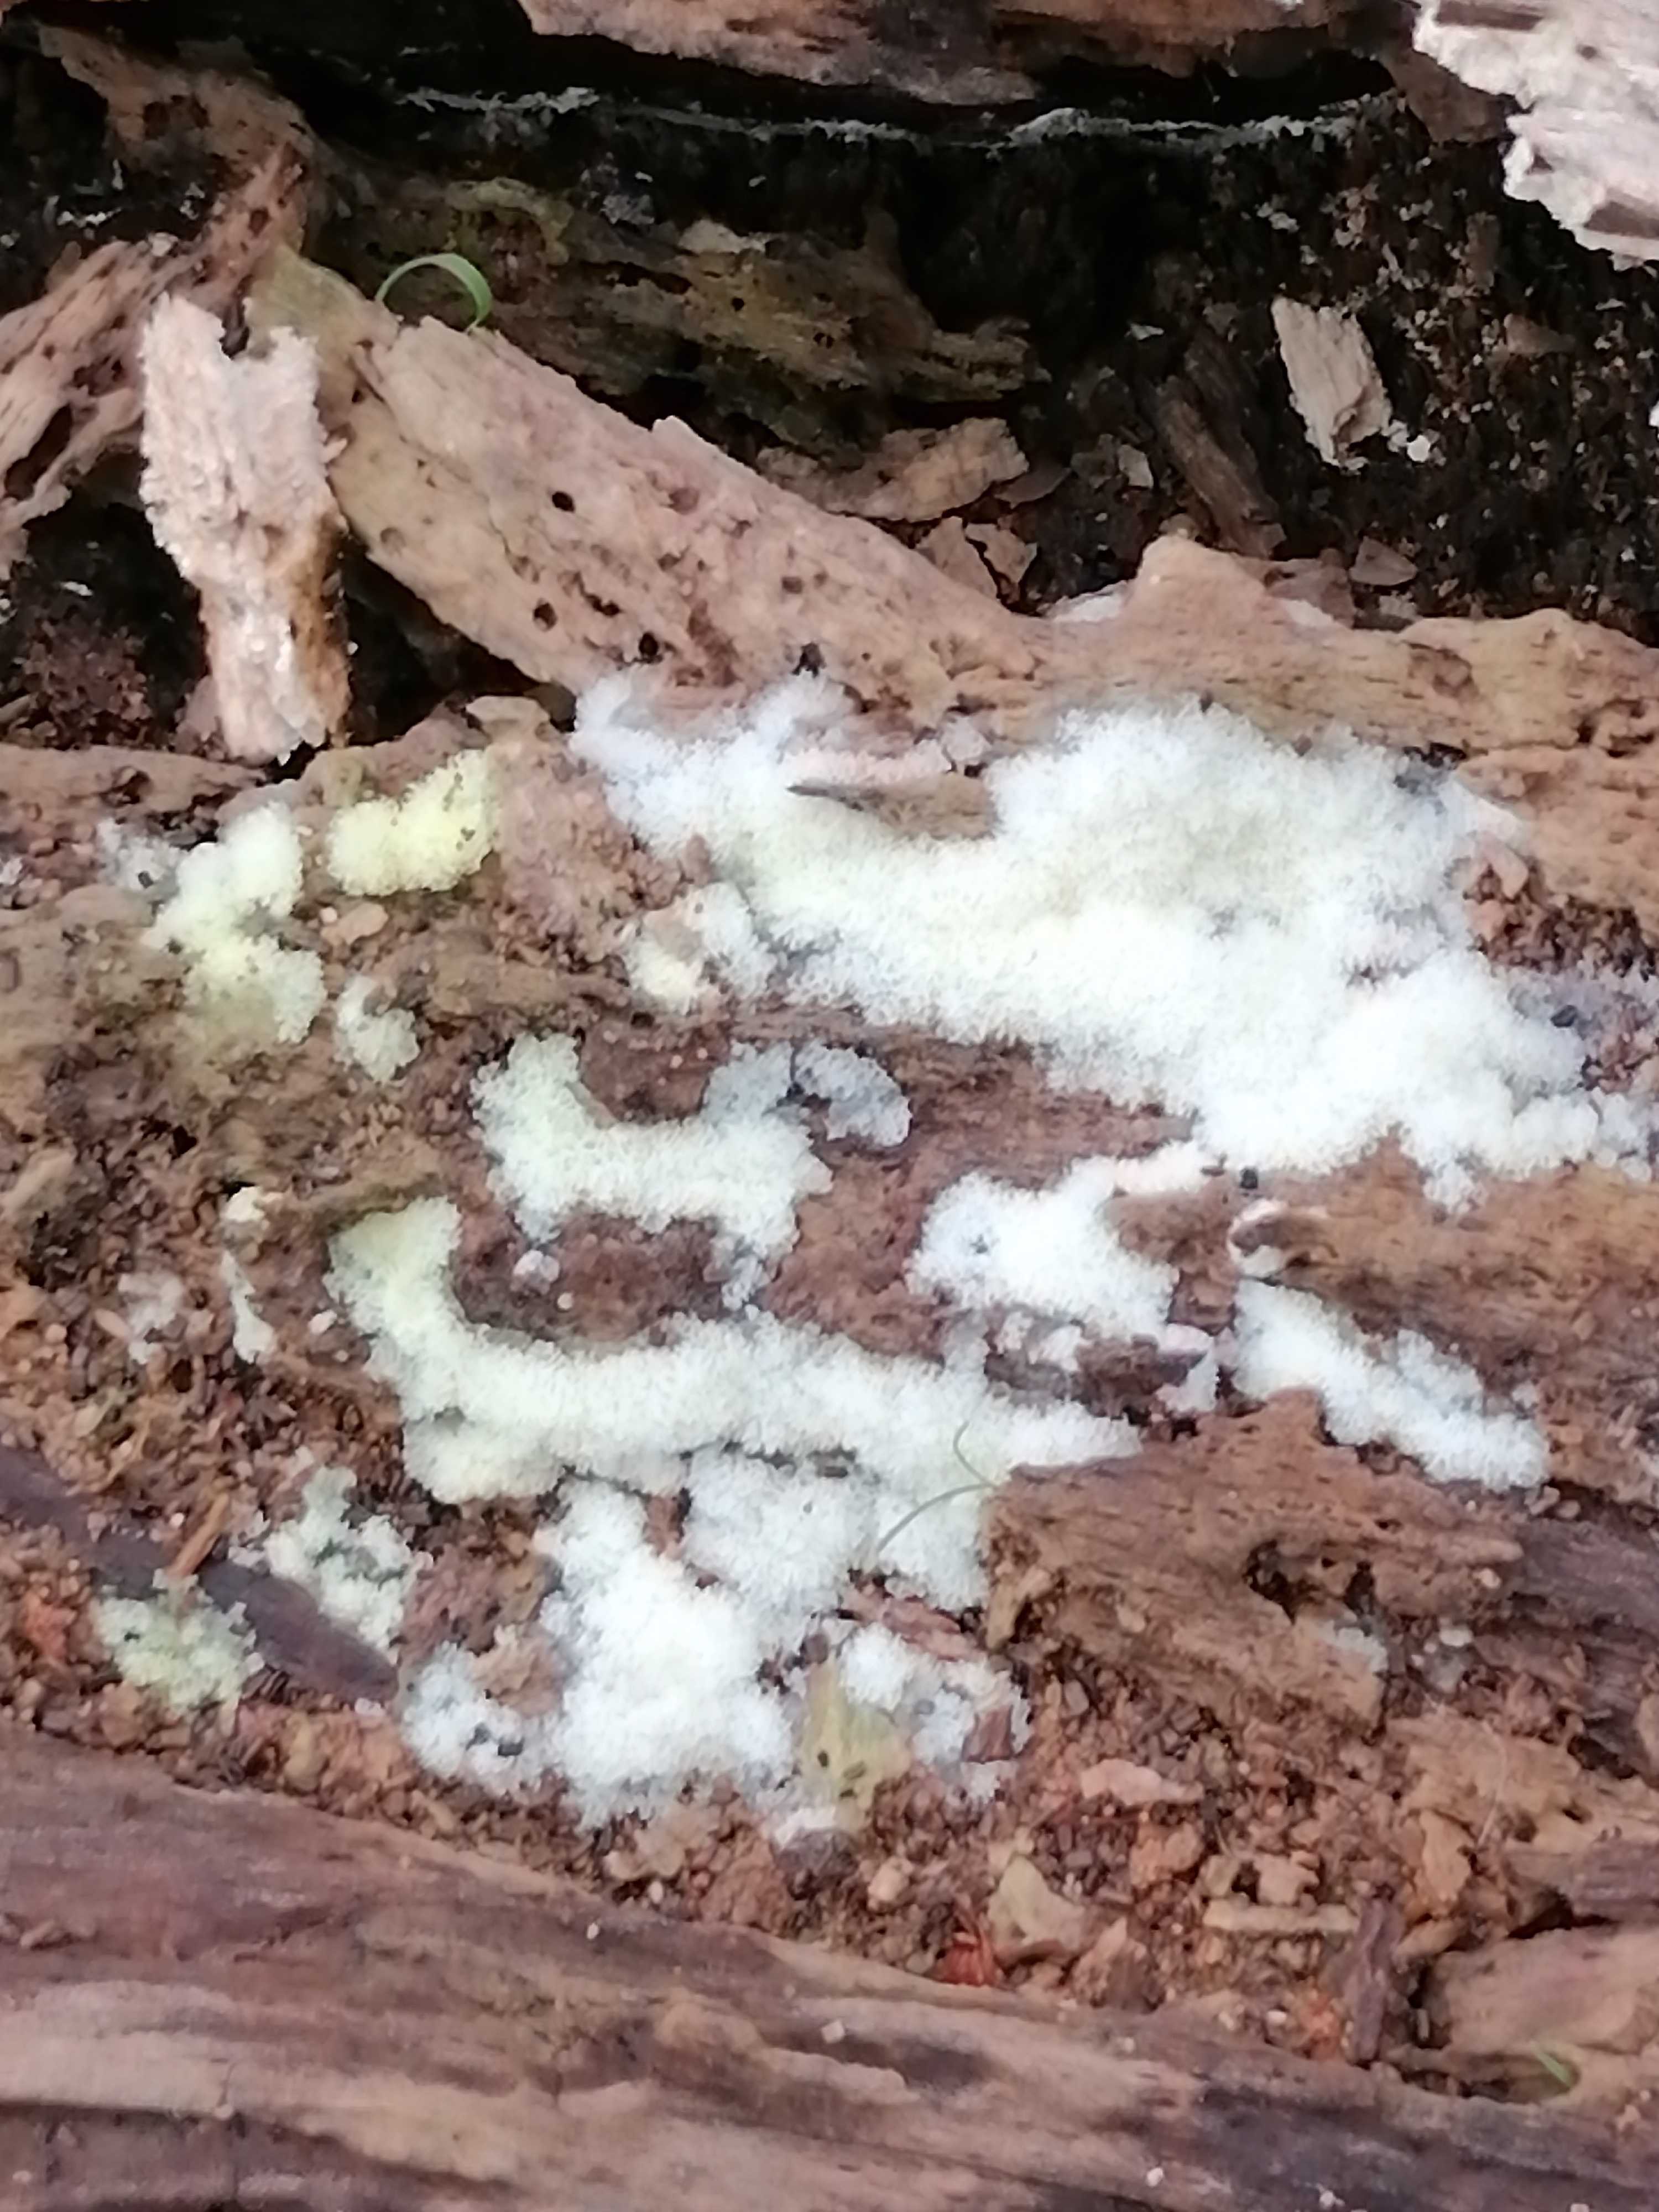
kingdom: Protozoa
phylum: Mycetozoa
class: Protosteliomycetes
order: Ceratiomyxales
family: Ceratiomyxaceae
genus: Ceratiomyxa
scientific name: Ceratiomyxa fruticulosa
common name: Honeycomb coral slime mold
